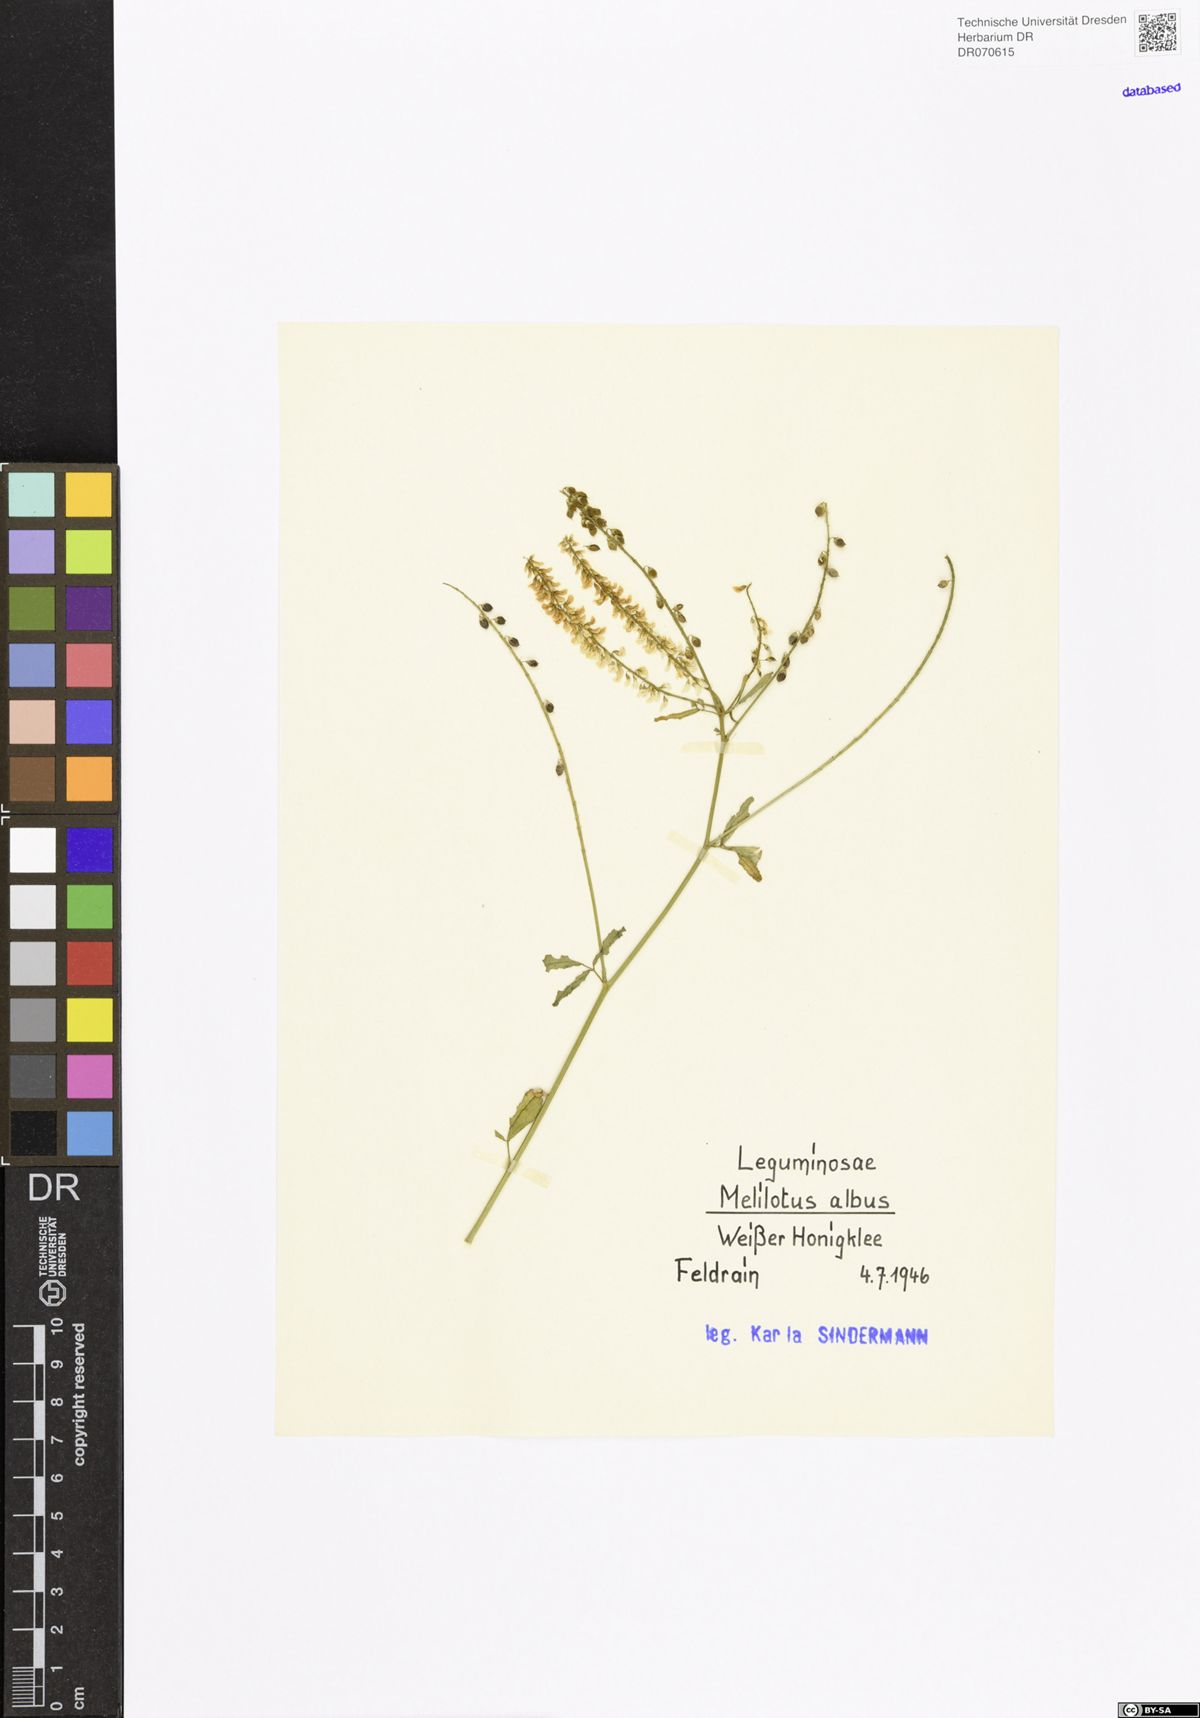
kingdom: Plantae
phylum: Tracheophyta
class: Magnoliopsida
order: Fabales
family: Fabaceae
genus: Melilotus
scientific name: Melilotus albus
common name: White melilot
